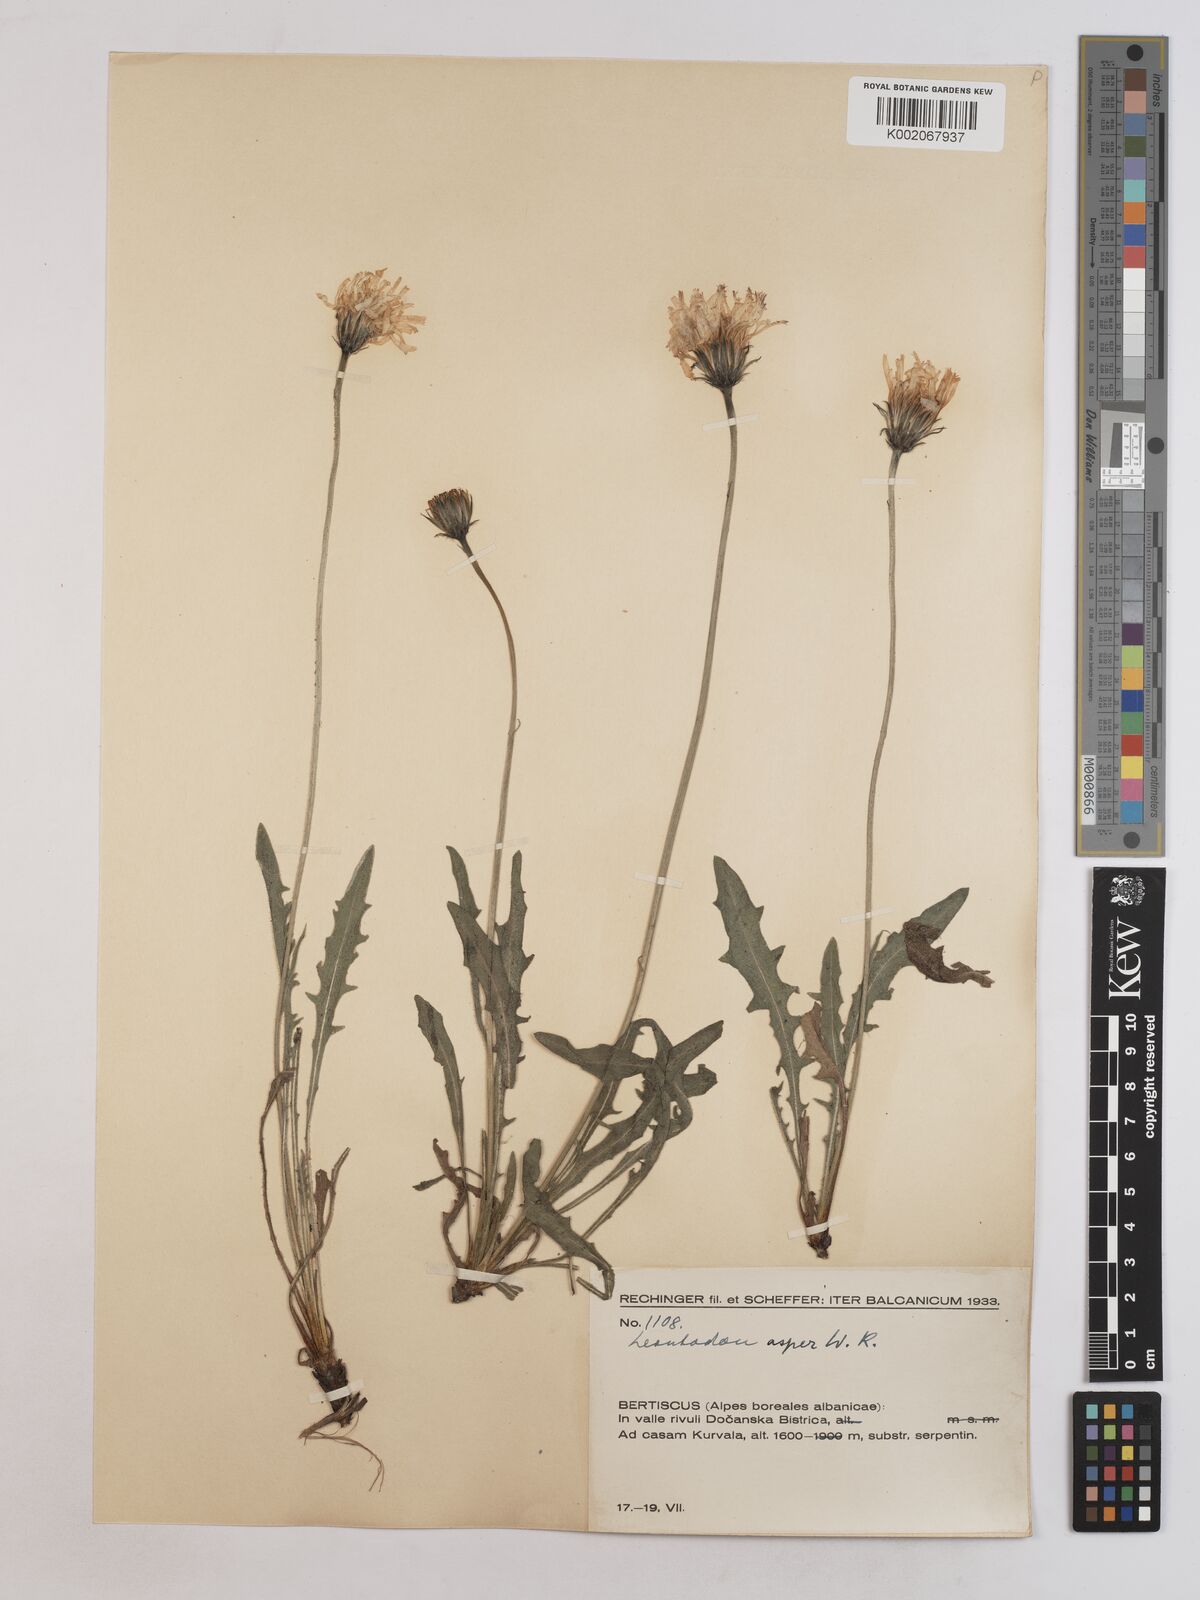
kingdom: Plantae
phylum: Tracheophyta
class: Magnoliopsida
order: Asterales
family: Asteraceae
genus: Leontodon
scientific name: Leontodon crispus
